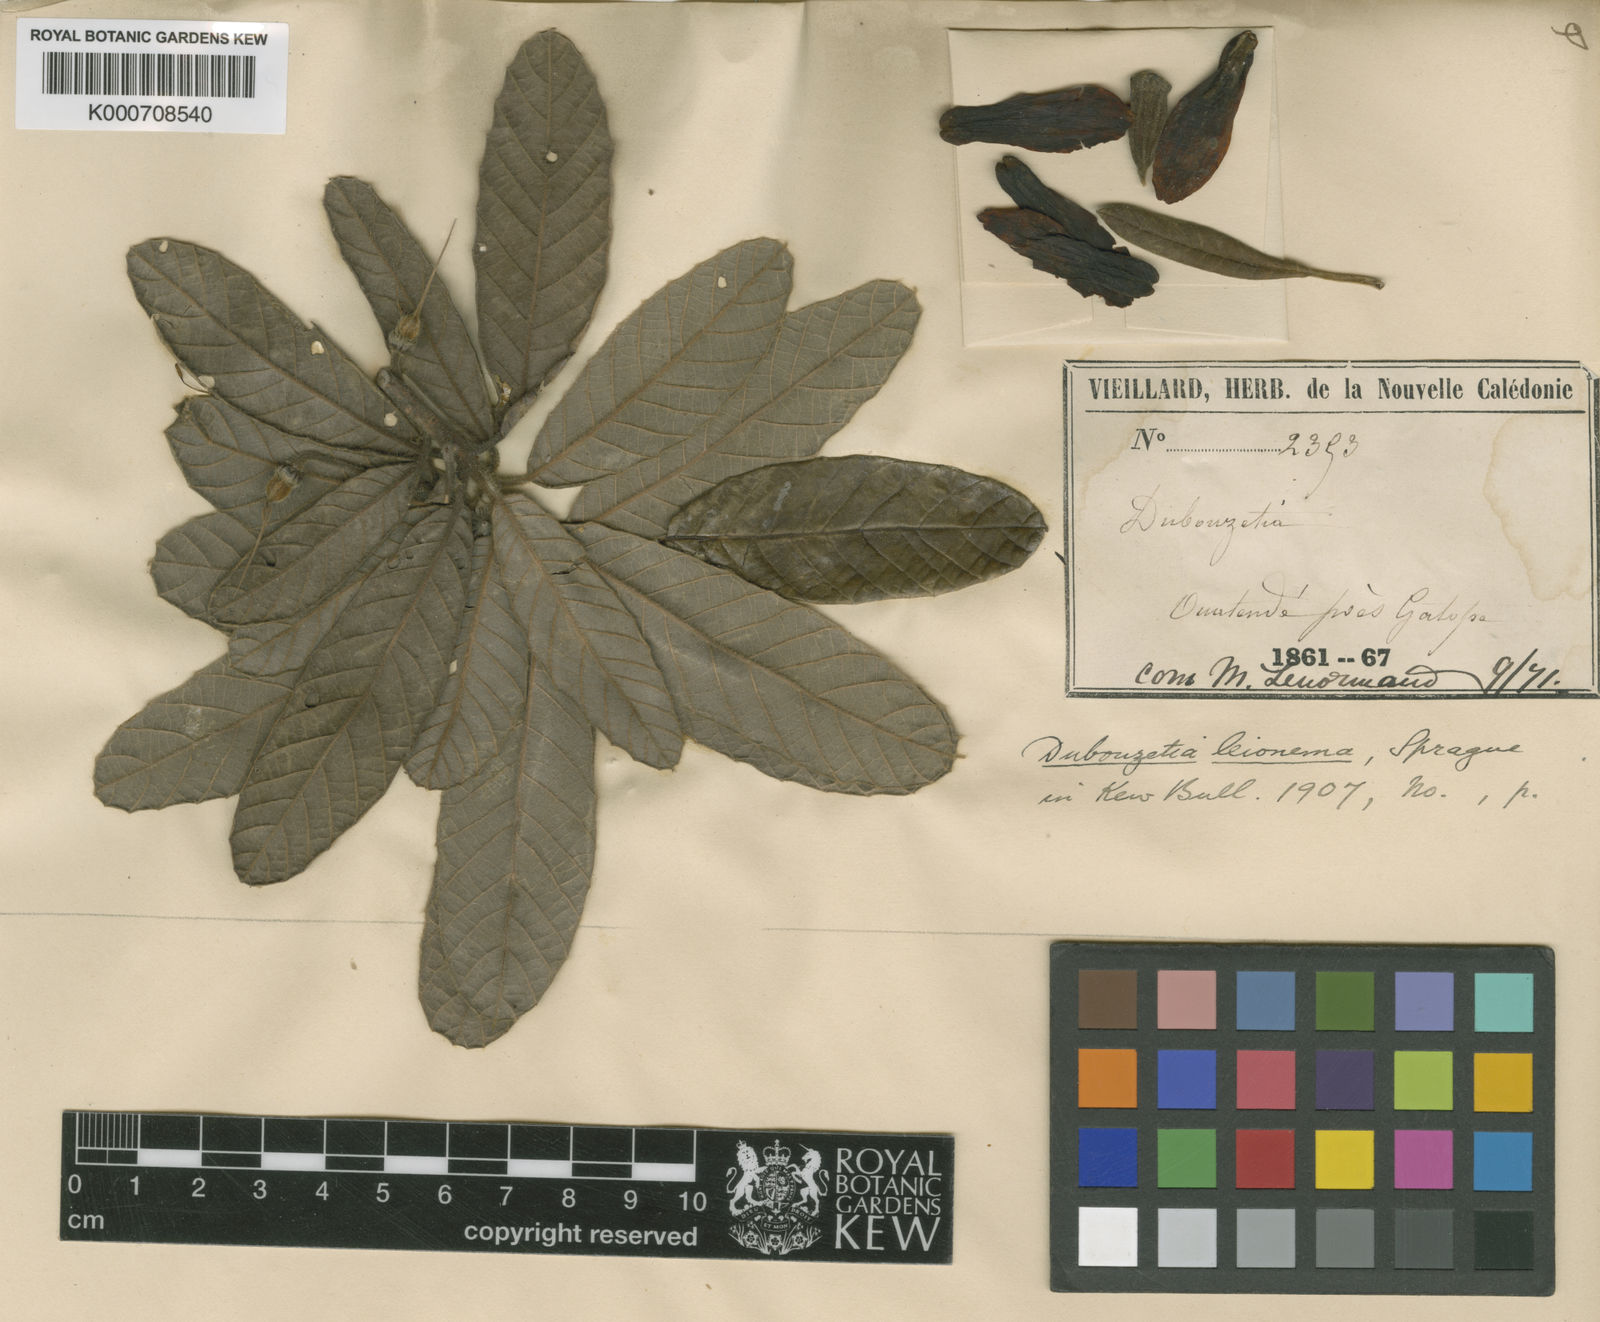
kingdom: Plantae
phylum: Tracheophyta
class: Magnoliopsida
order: Oxalidales
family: Elaeocarpaceae
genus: Dubouzetia
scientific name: Dubouzetia caudiculata
